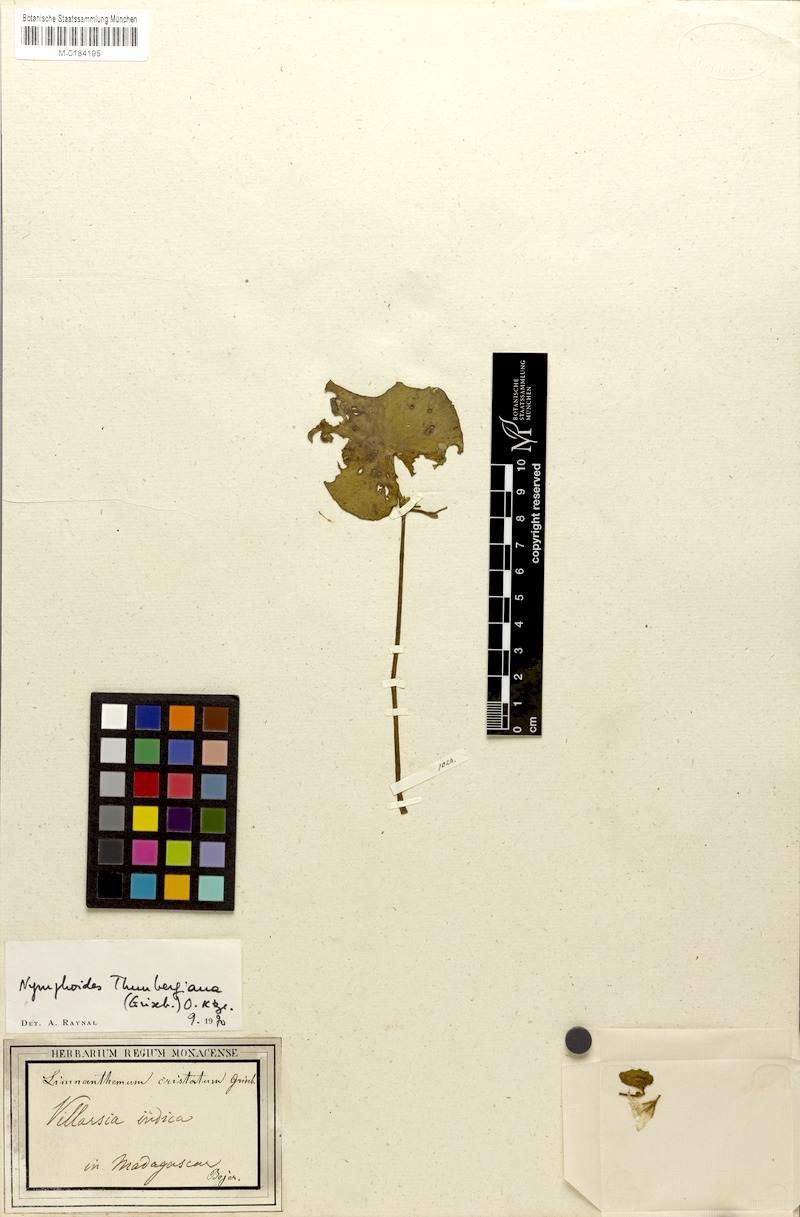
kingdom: Plantae
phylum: Tracheophyta
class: Magnoliopsida
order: Asterales
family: Menyanthaceae
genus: Nymphoides
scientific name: Nymphoides indica
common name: Water-snowflake
